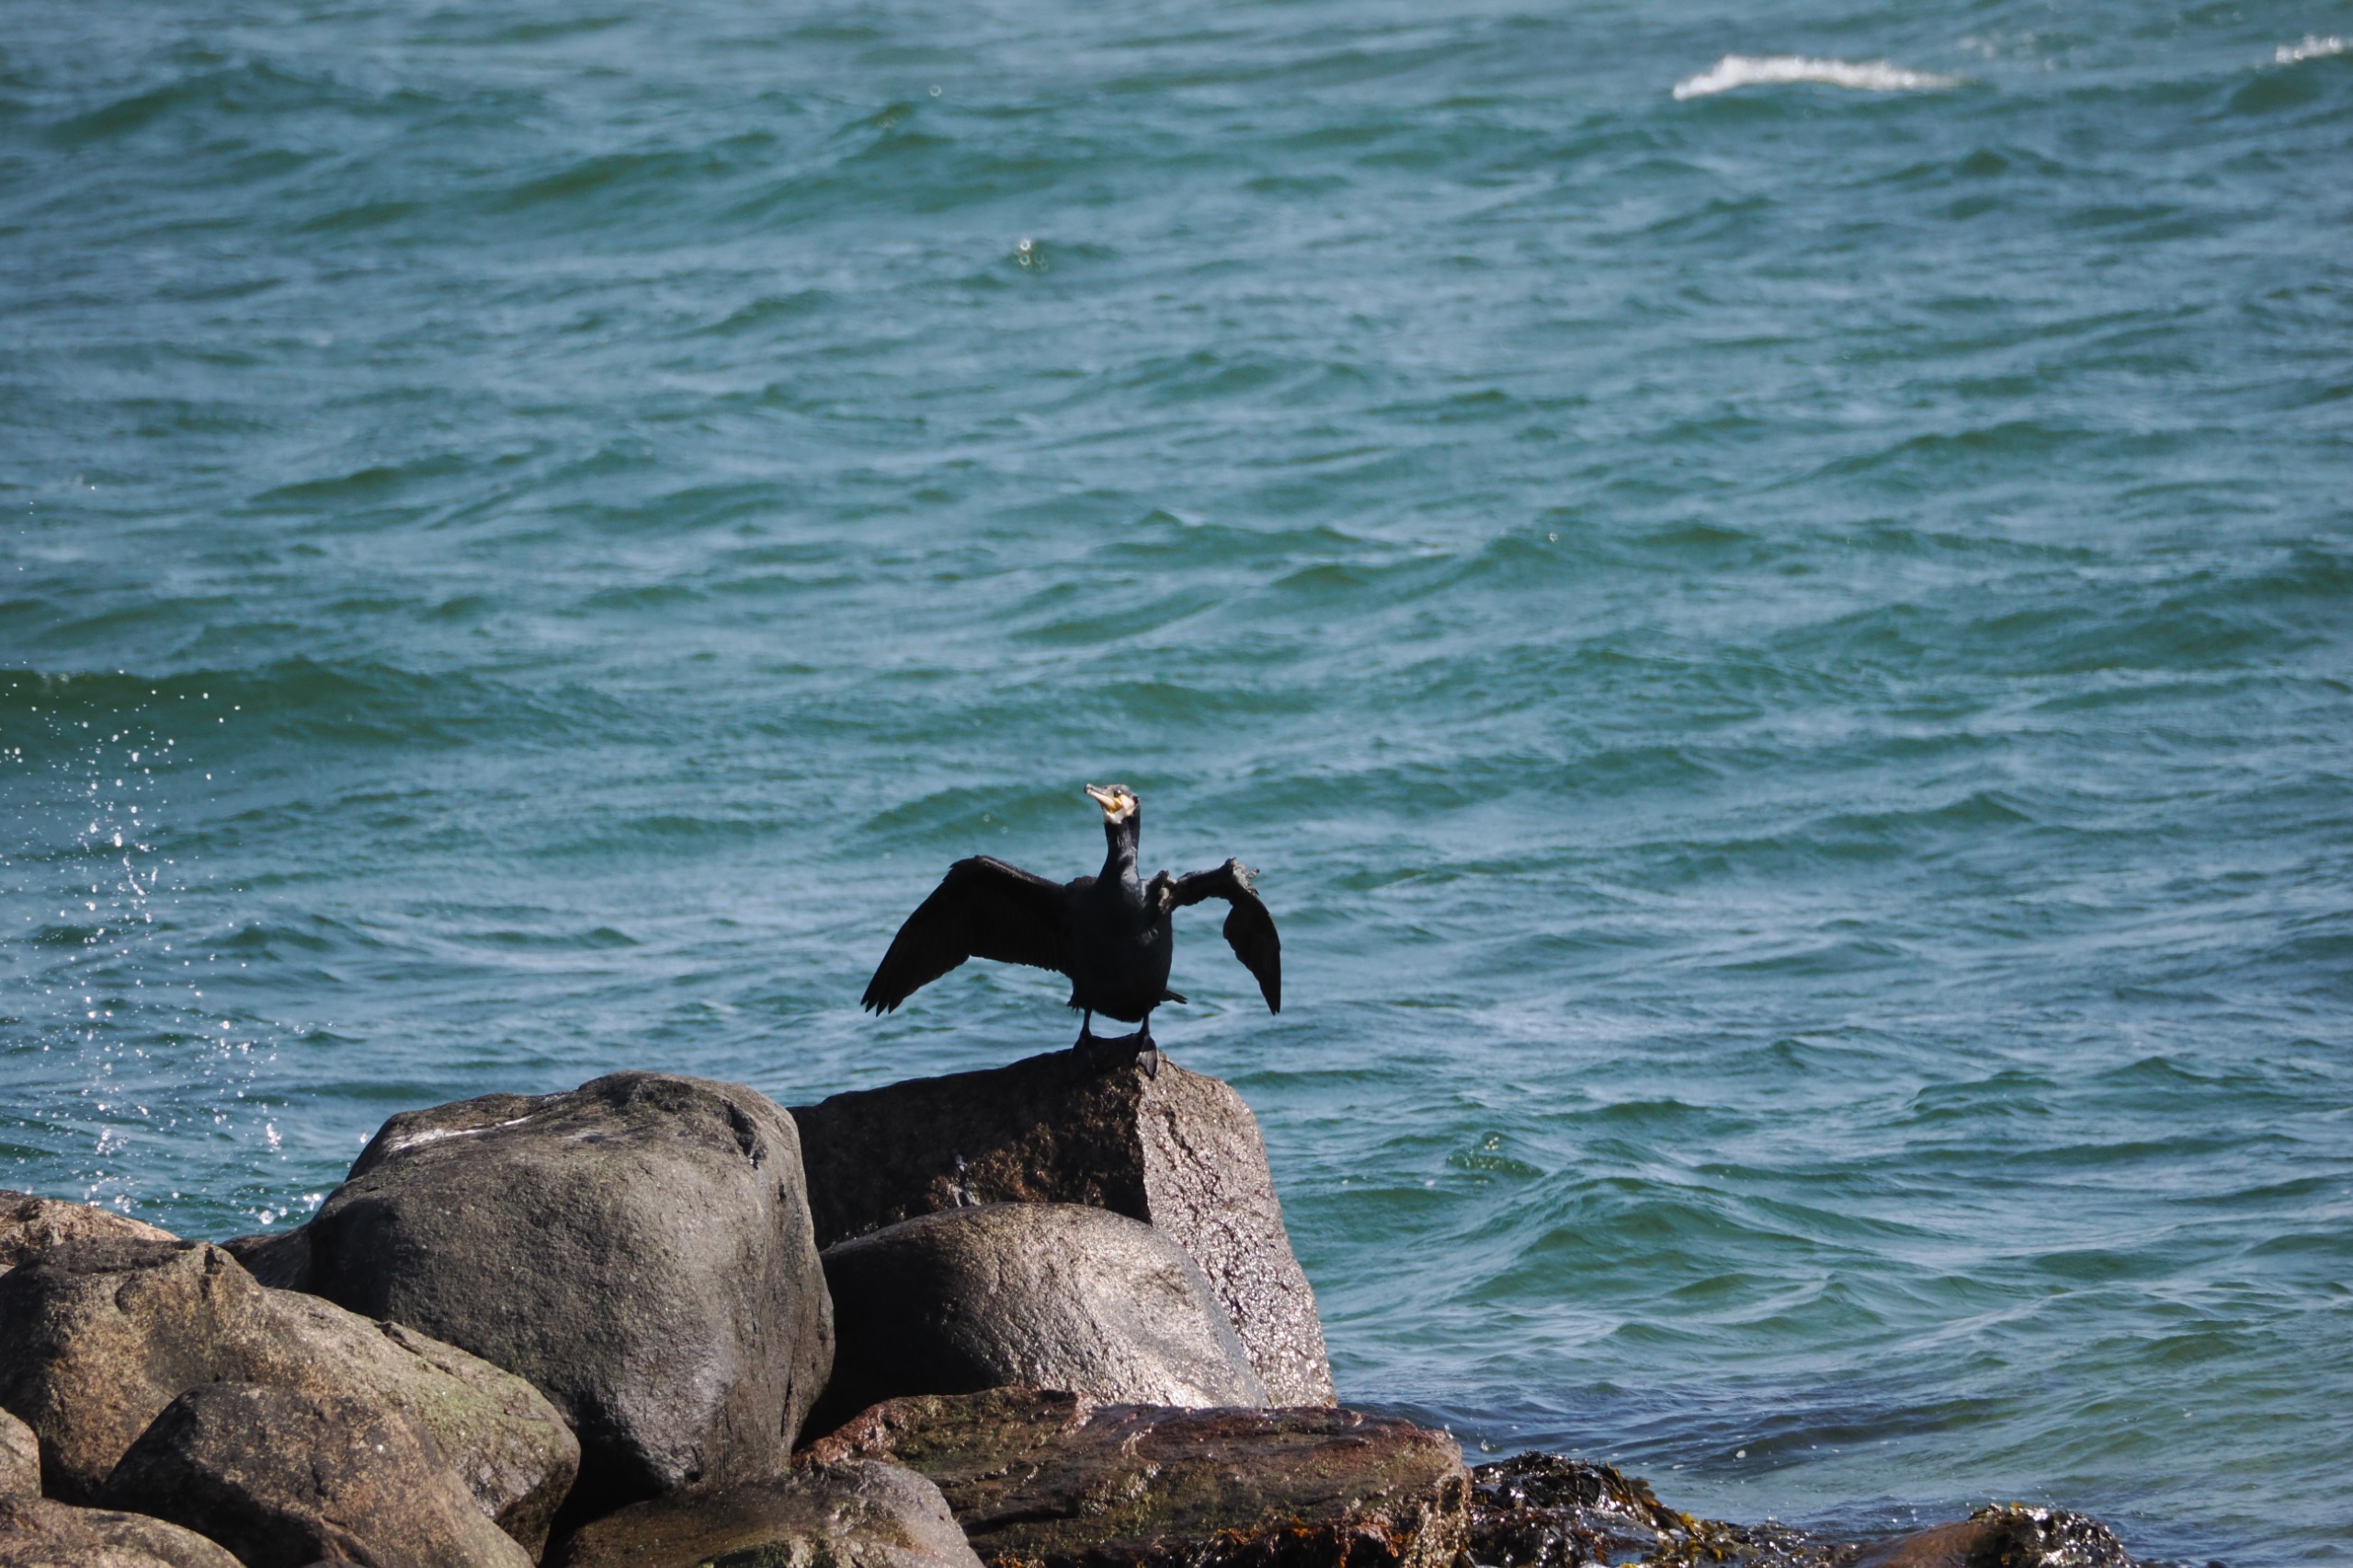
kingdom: Animalia
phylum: Chordata
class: Aves
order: Suliformes
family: Phalacrocoracidae
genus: Phalacrocorax
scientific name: Phalacrocorax carbo
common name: Skarv
